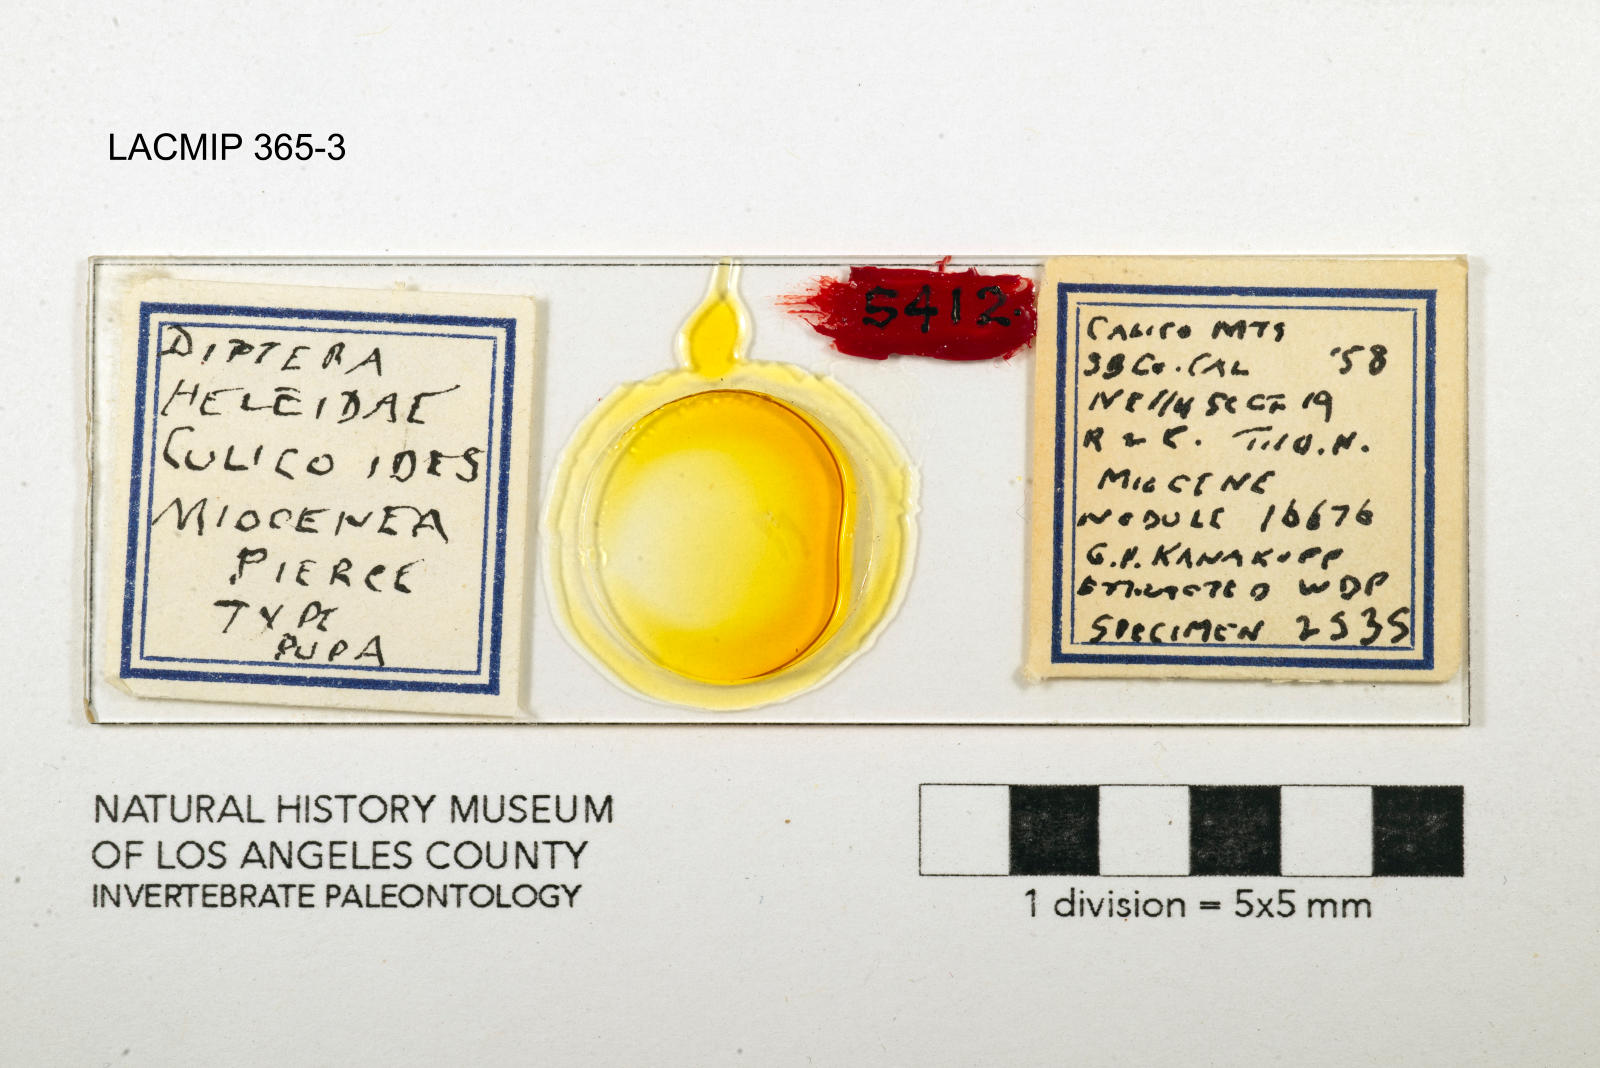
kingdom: Animalia
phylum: Arthropoda
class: Insecta
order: Diptera
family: Ceratopogonidae
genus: Culicoides
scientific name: Culicoides miocenicus
